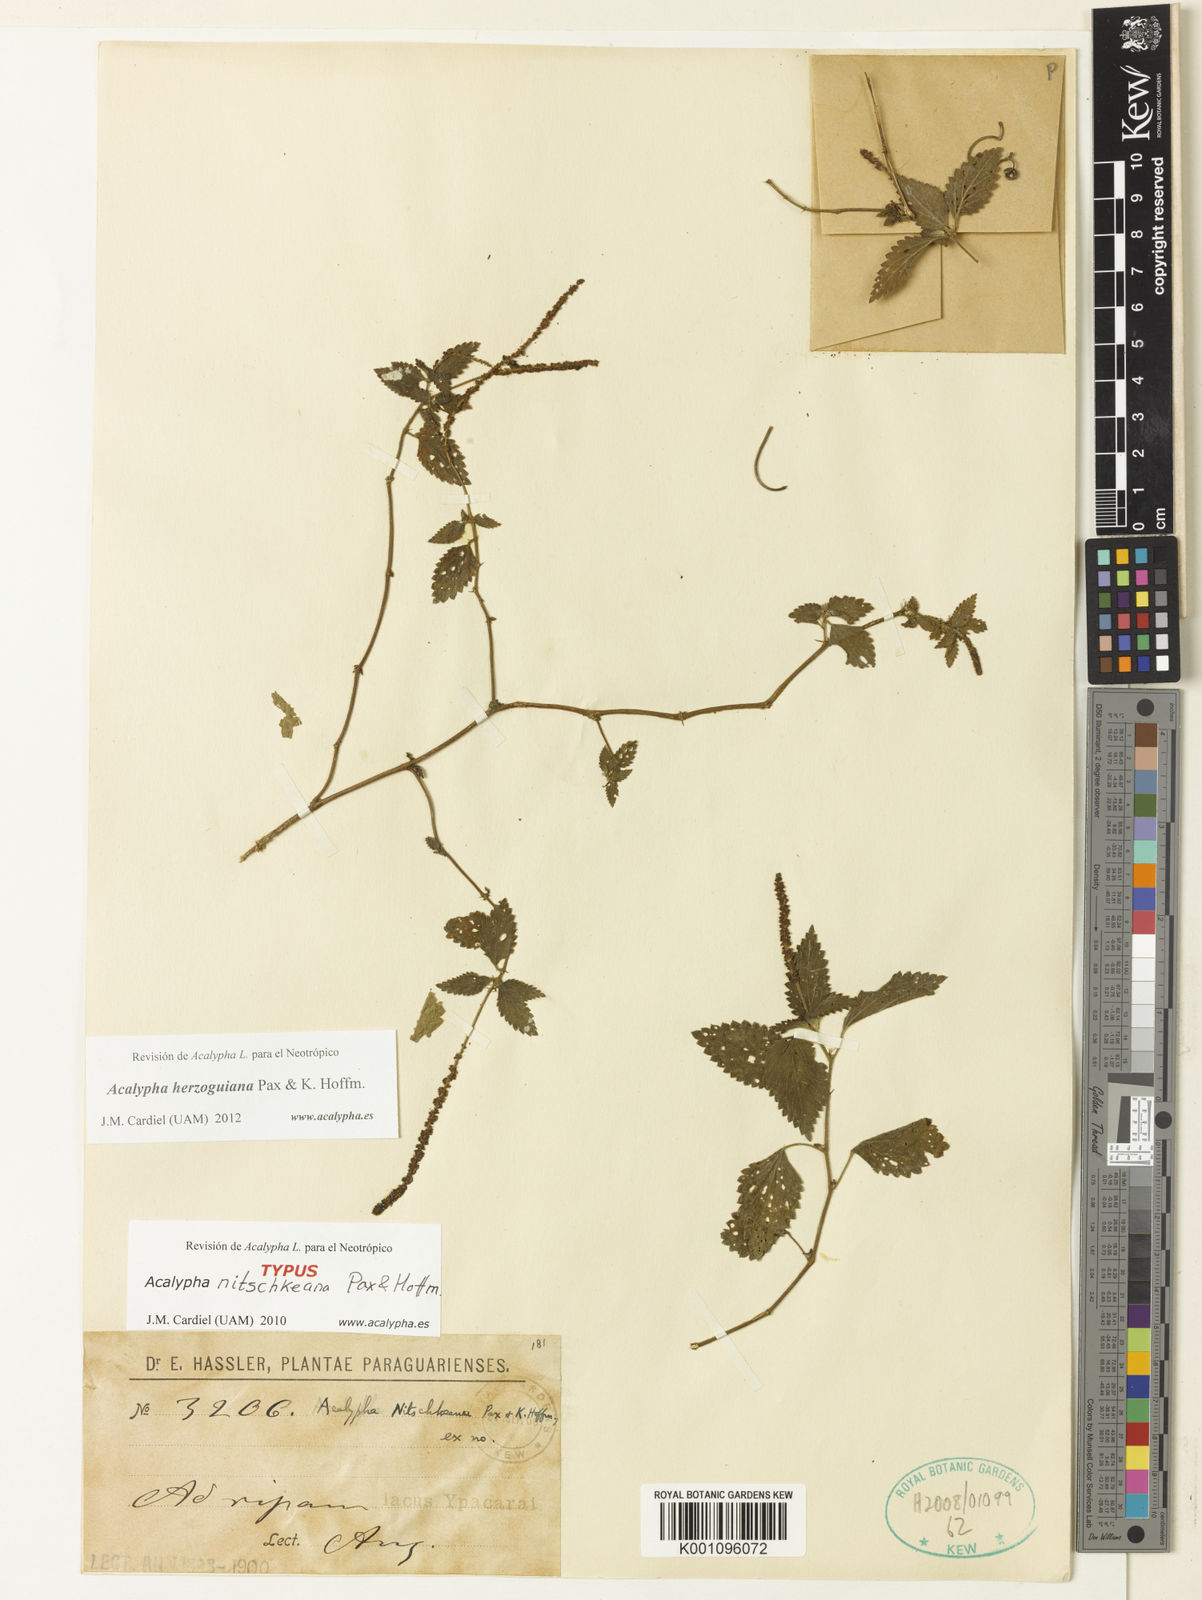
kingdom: Plantae
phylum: Tracheophyta
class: Magnoliopsida
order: Malpighiales
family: Euphorbiaceae
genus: Acalypha
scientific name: Acalypha herzogiana
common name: Dwarf-cattail
